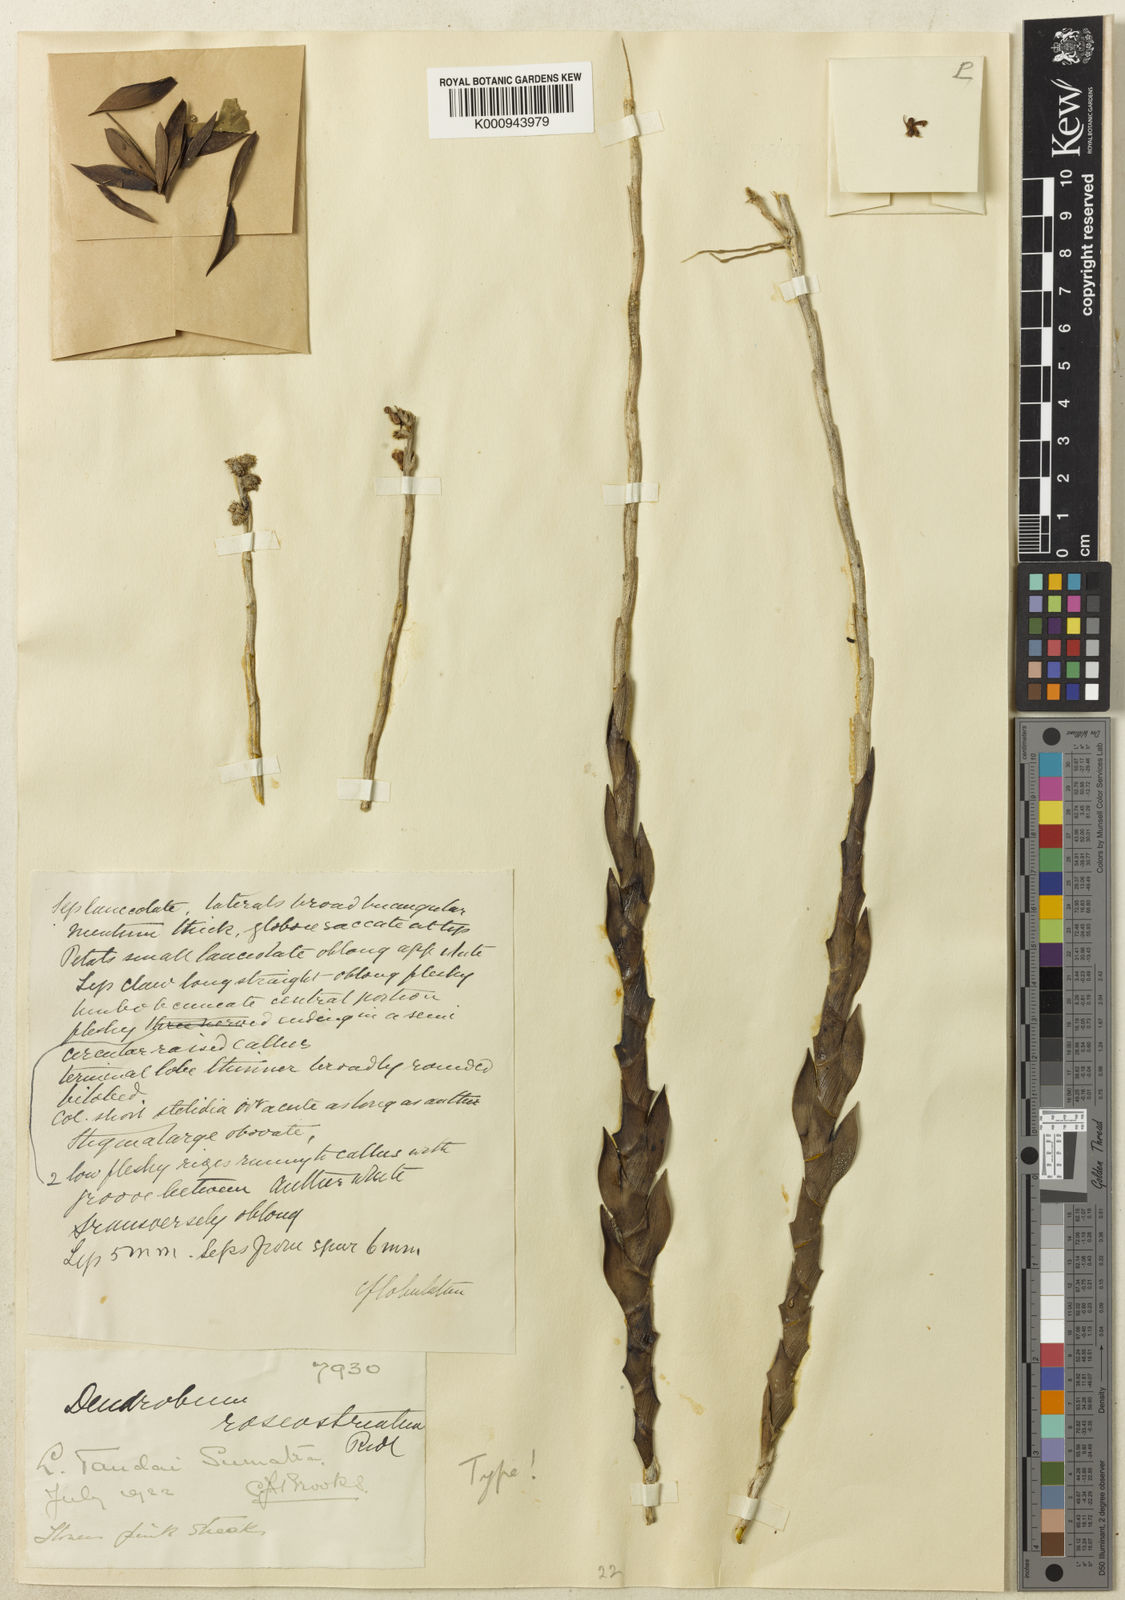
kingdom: Plantae
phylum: Tracheophyta
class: Liliopsida
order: Asparagales
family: Orchidaceae
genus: Dendrobium
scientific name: Dendrobium lancilobum
